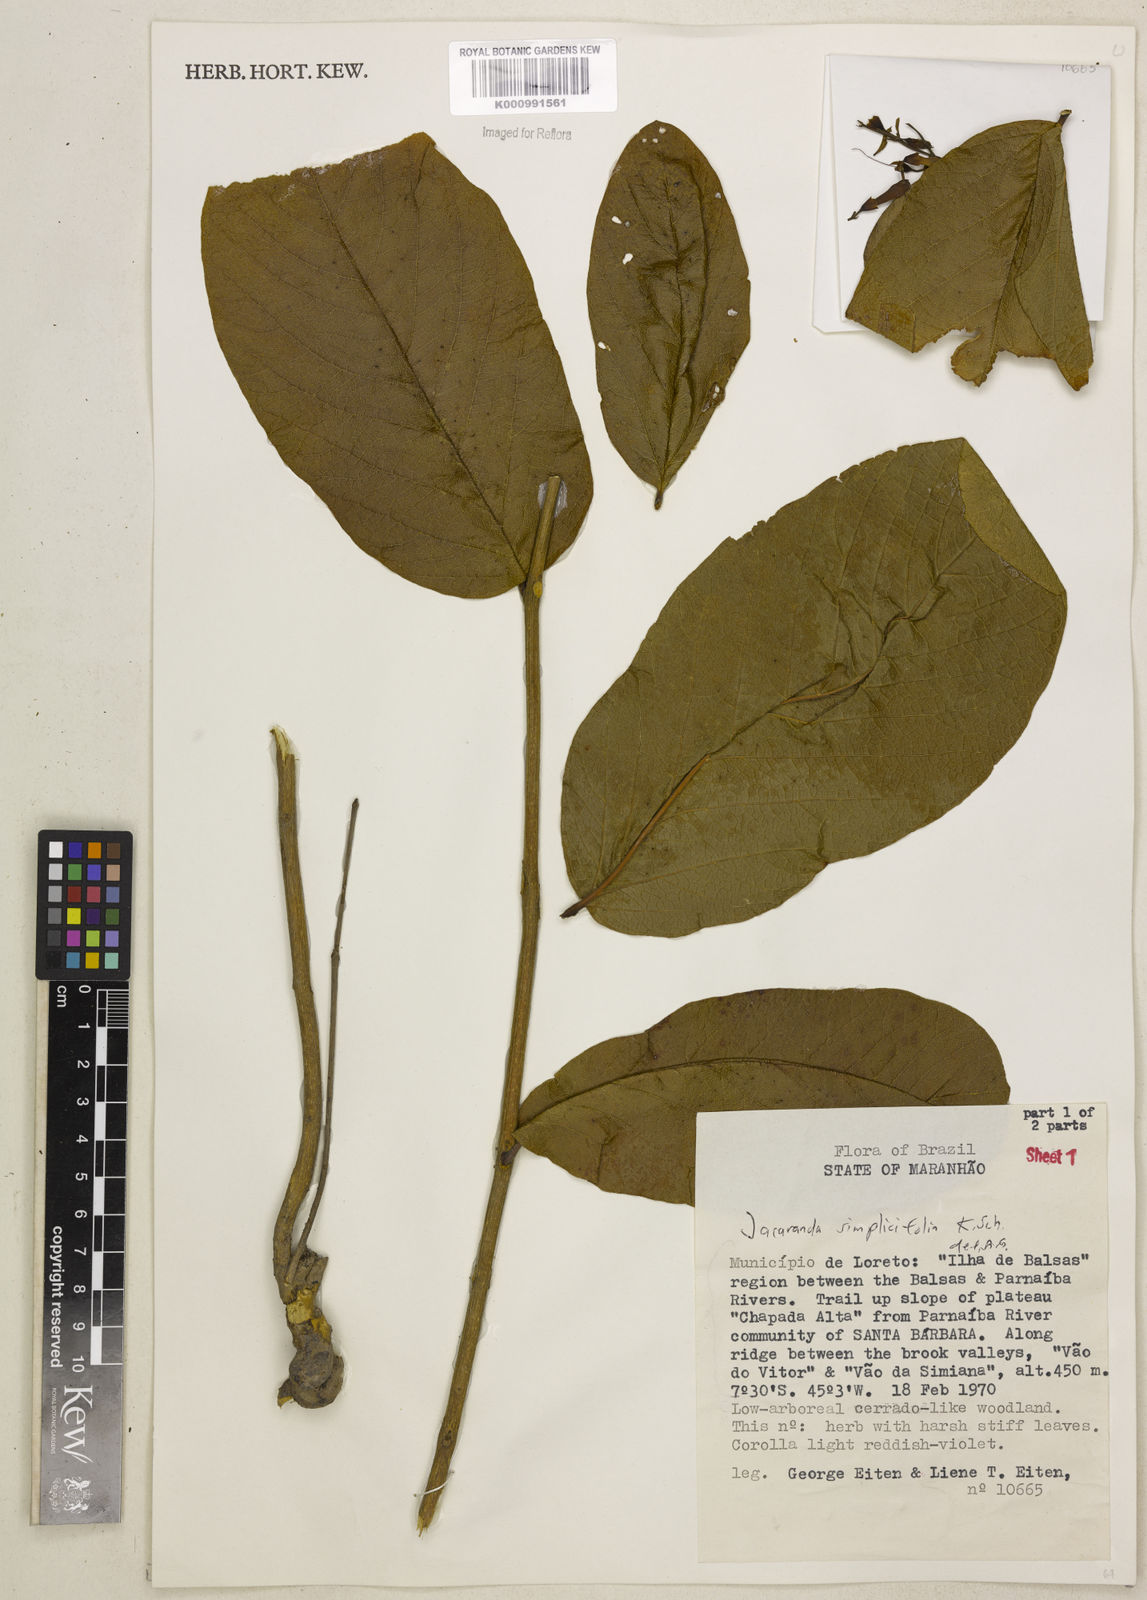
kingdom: Plantae
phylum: Tracheophyta
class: Magnoliopsida
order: Lamiales
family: Bignoniaceae
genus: Jacaranda
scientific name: Jacaranda simplicifolia
